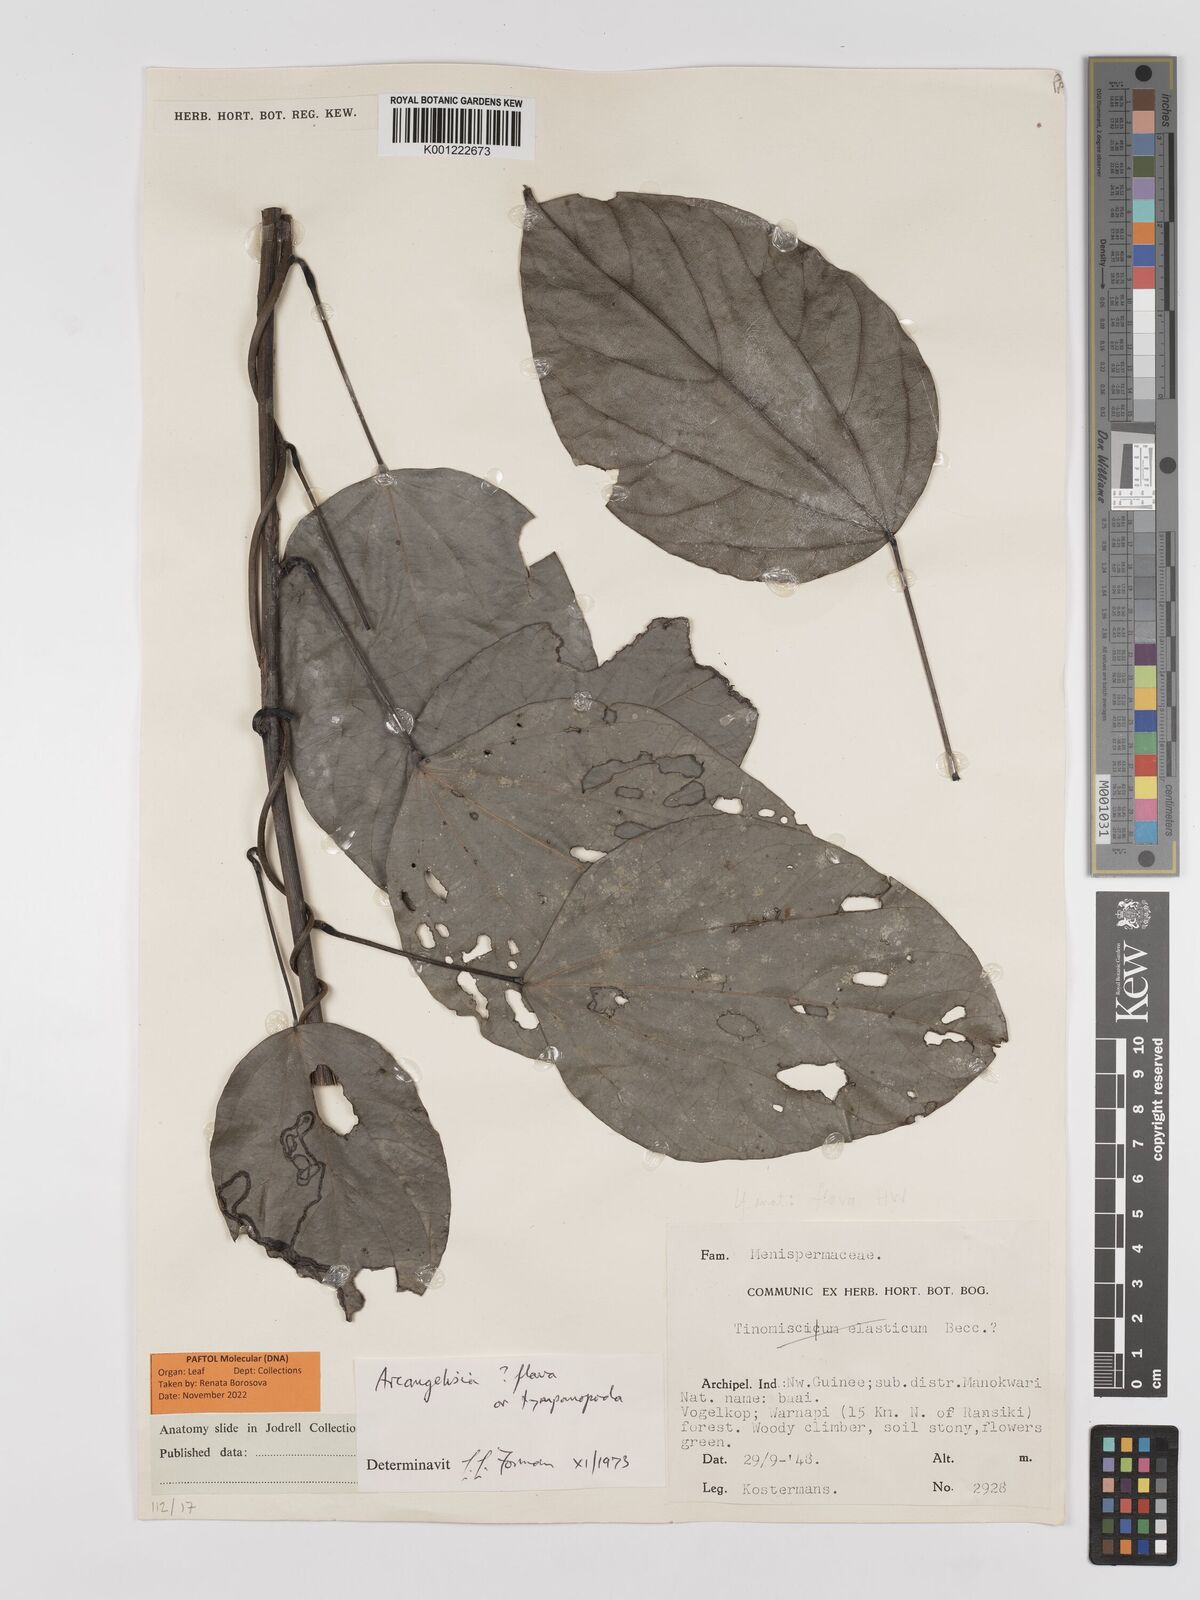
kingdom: Plantae
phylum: Tracheophyta
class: Magnoliopsida
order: Ranunculales
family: Menispermaceae
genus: Arcangelisia
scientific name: Arcangelisia flava
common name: Yellow-fruit moonseed
